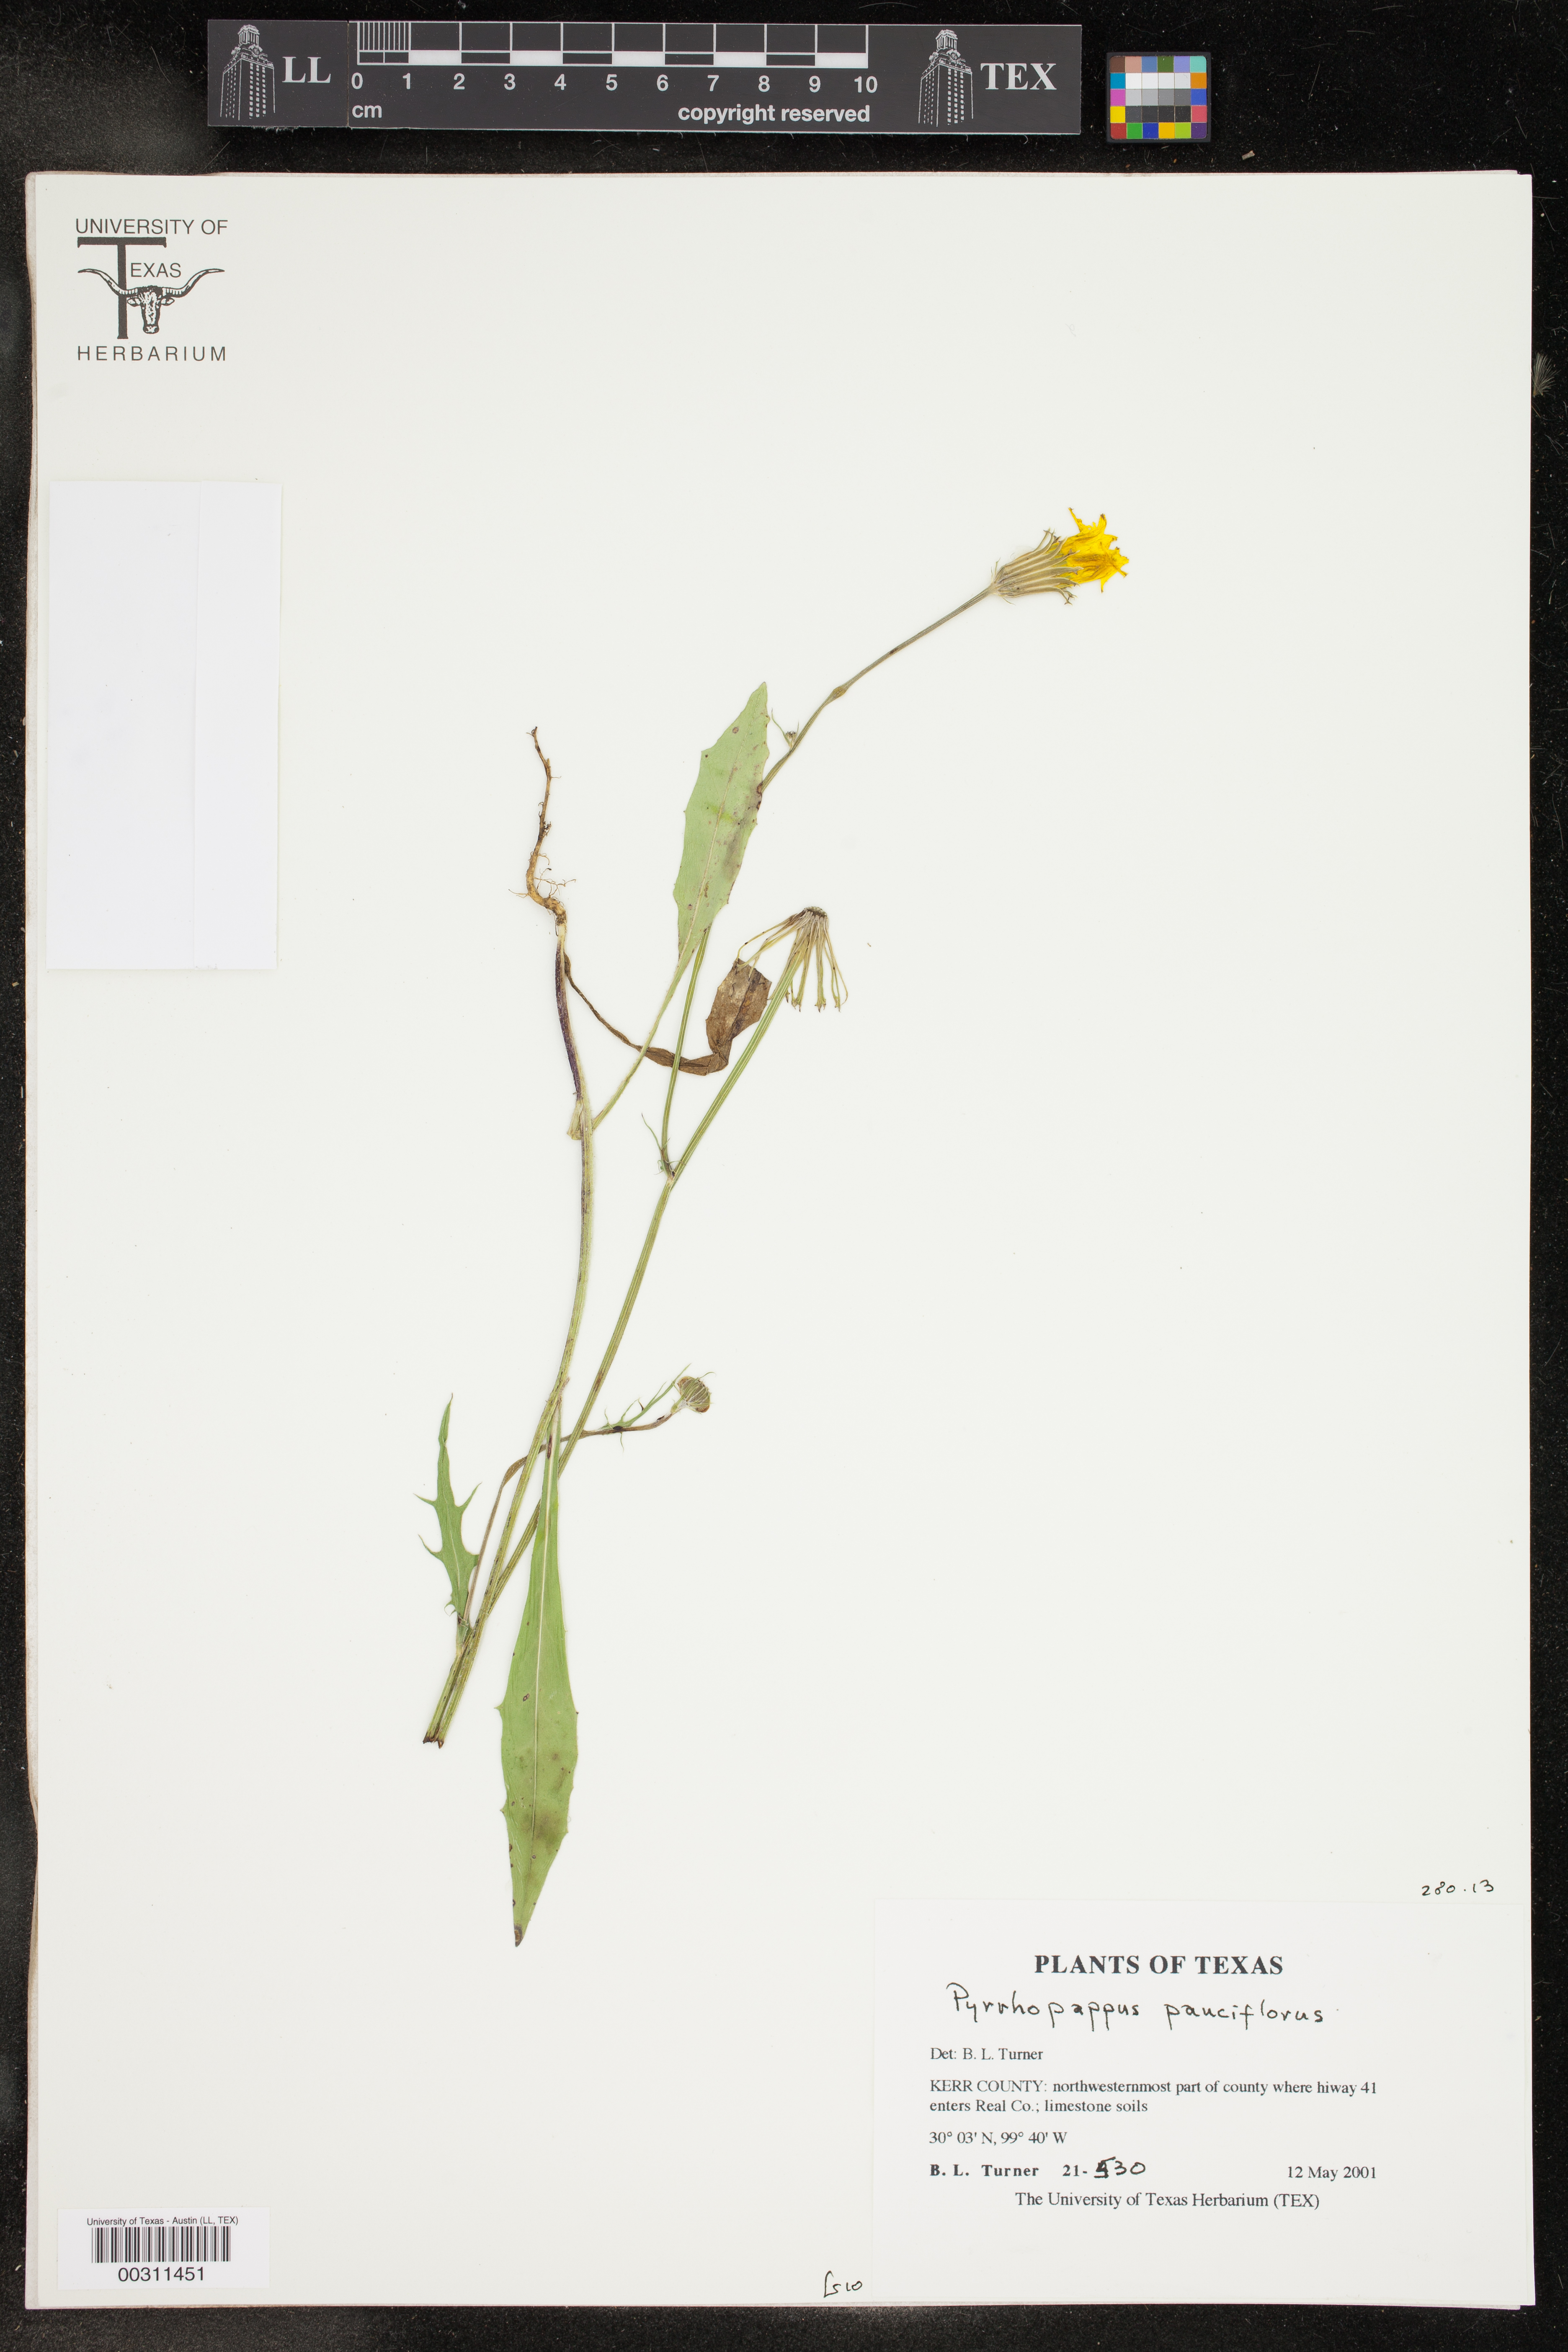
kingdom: Plantae
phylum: Tracheophyta
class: Magnoliopsida
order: Asterales
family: Asteraceae
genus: Pyrrhopappus
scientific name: Pyrrhopappus pauciflorus
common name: Texas false dandelion
